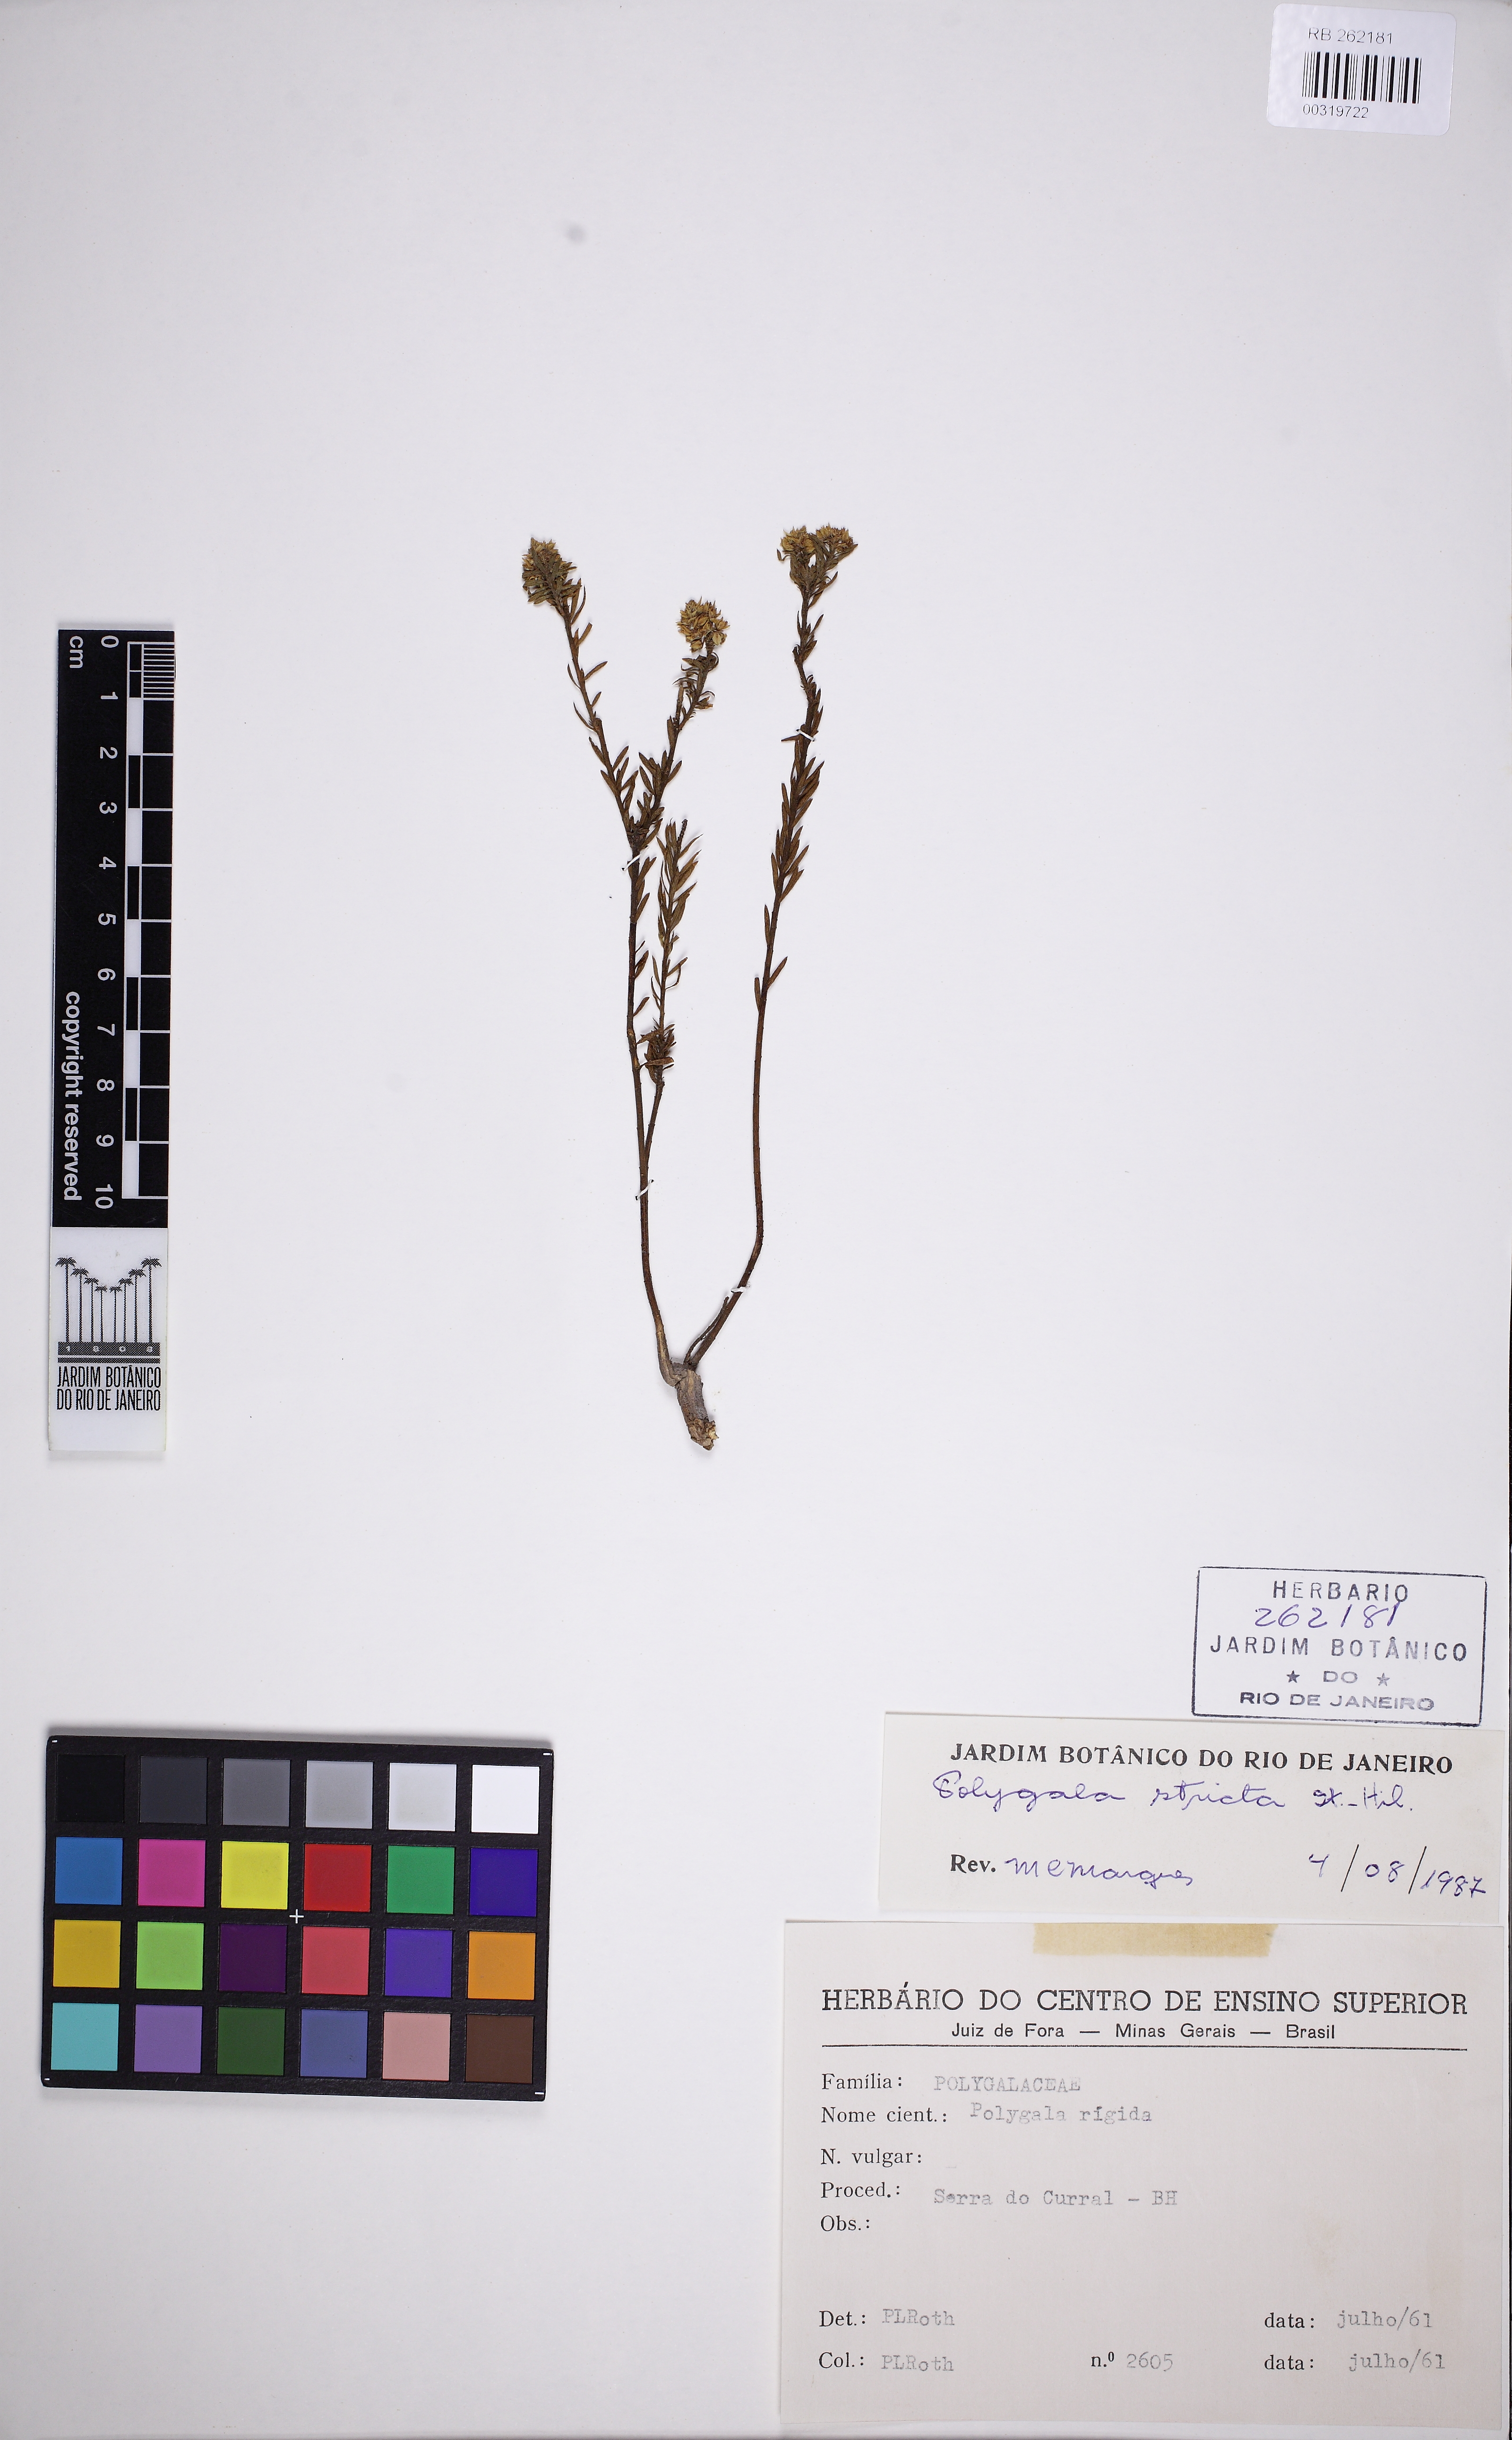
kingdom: Plantae
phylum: Tracheophyta
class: Magnoliopsida
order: Fabales
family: Polygalaceae
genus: Polygala
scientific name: Polygala stricta
